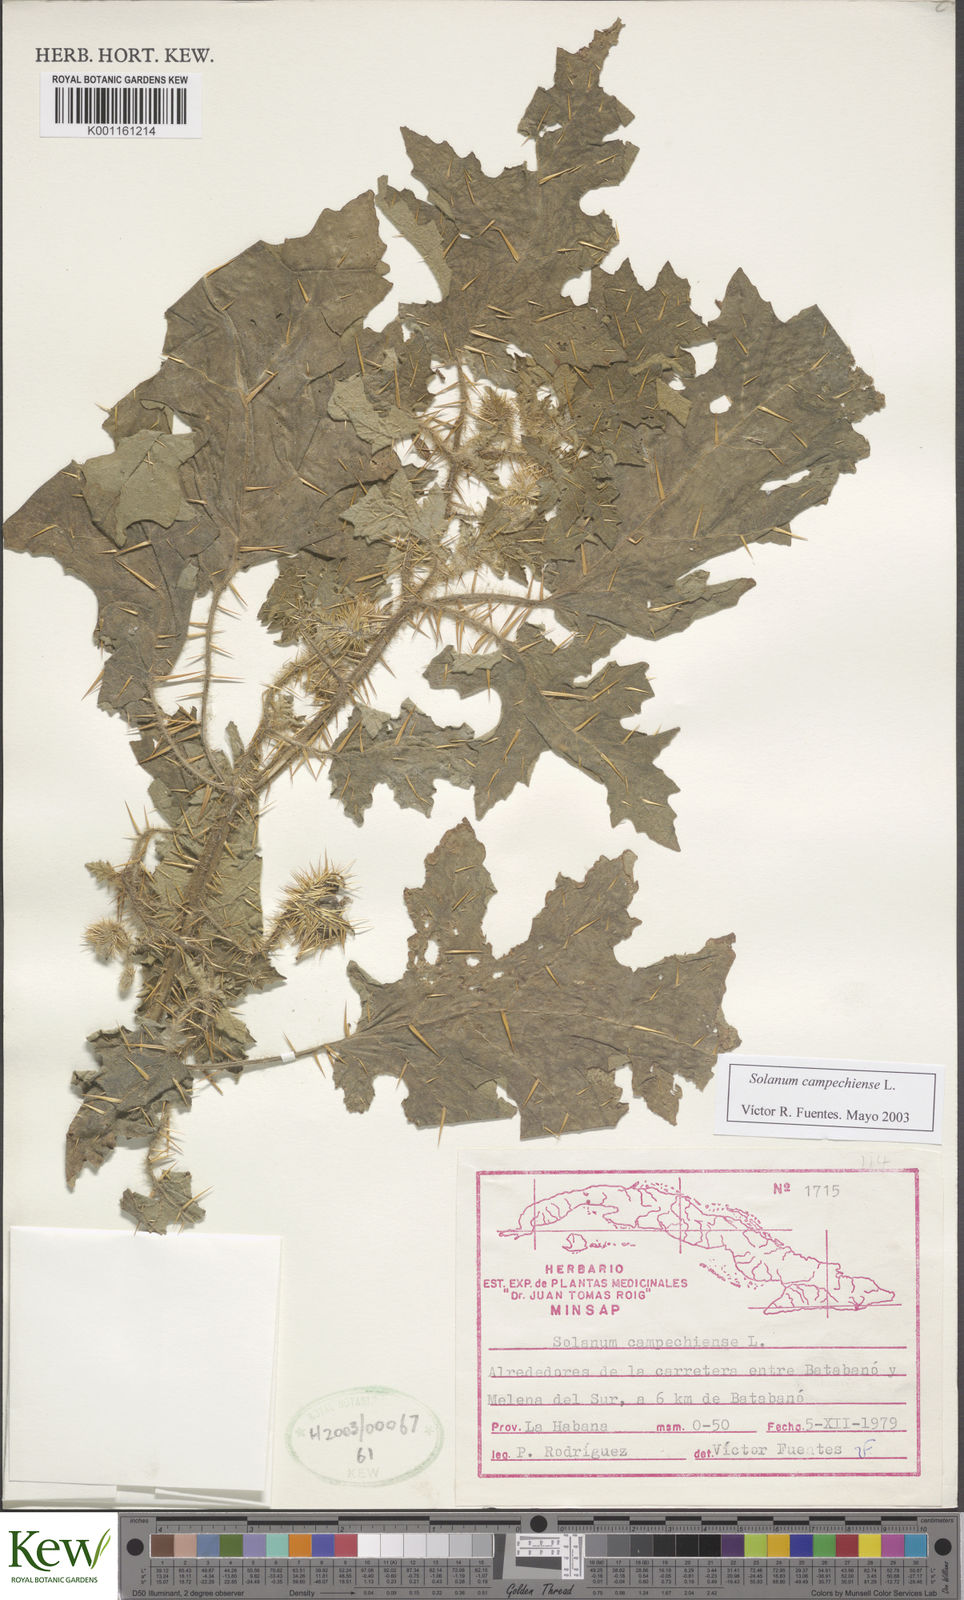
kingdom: Plantae
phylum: Tracheophyta
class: Magnoliopsida
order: Solanales
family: Solanaceae
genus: Solanum
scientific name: Solanum campechiense
